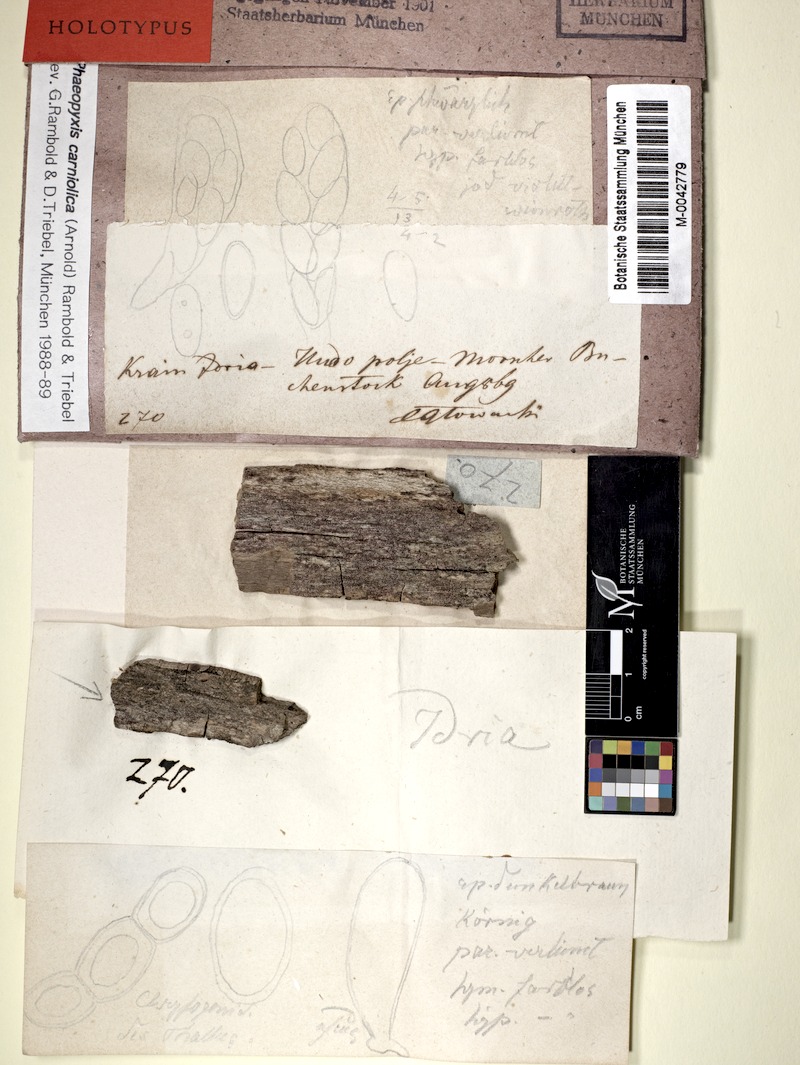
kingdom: Fungi
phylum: Ascomycota
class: Lecanoromycetes
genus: Bachmanniomyces
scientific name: Bachmanniomyces carniolicus
